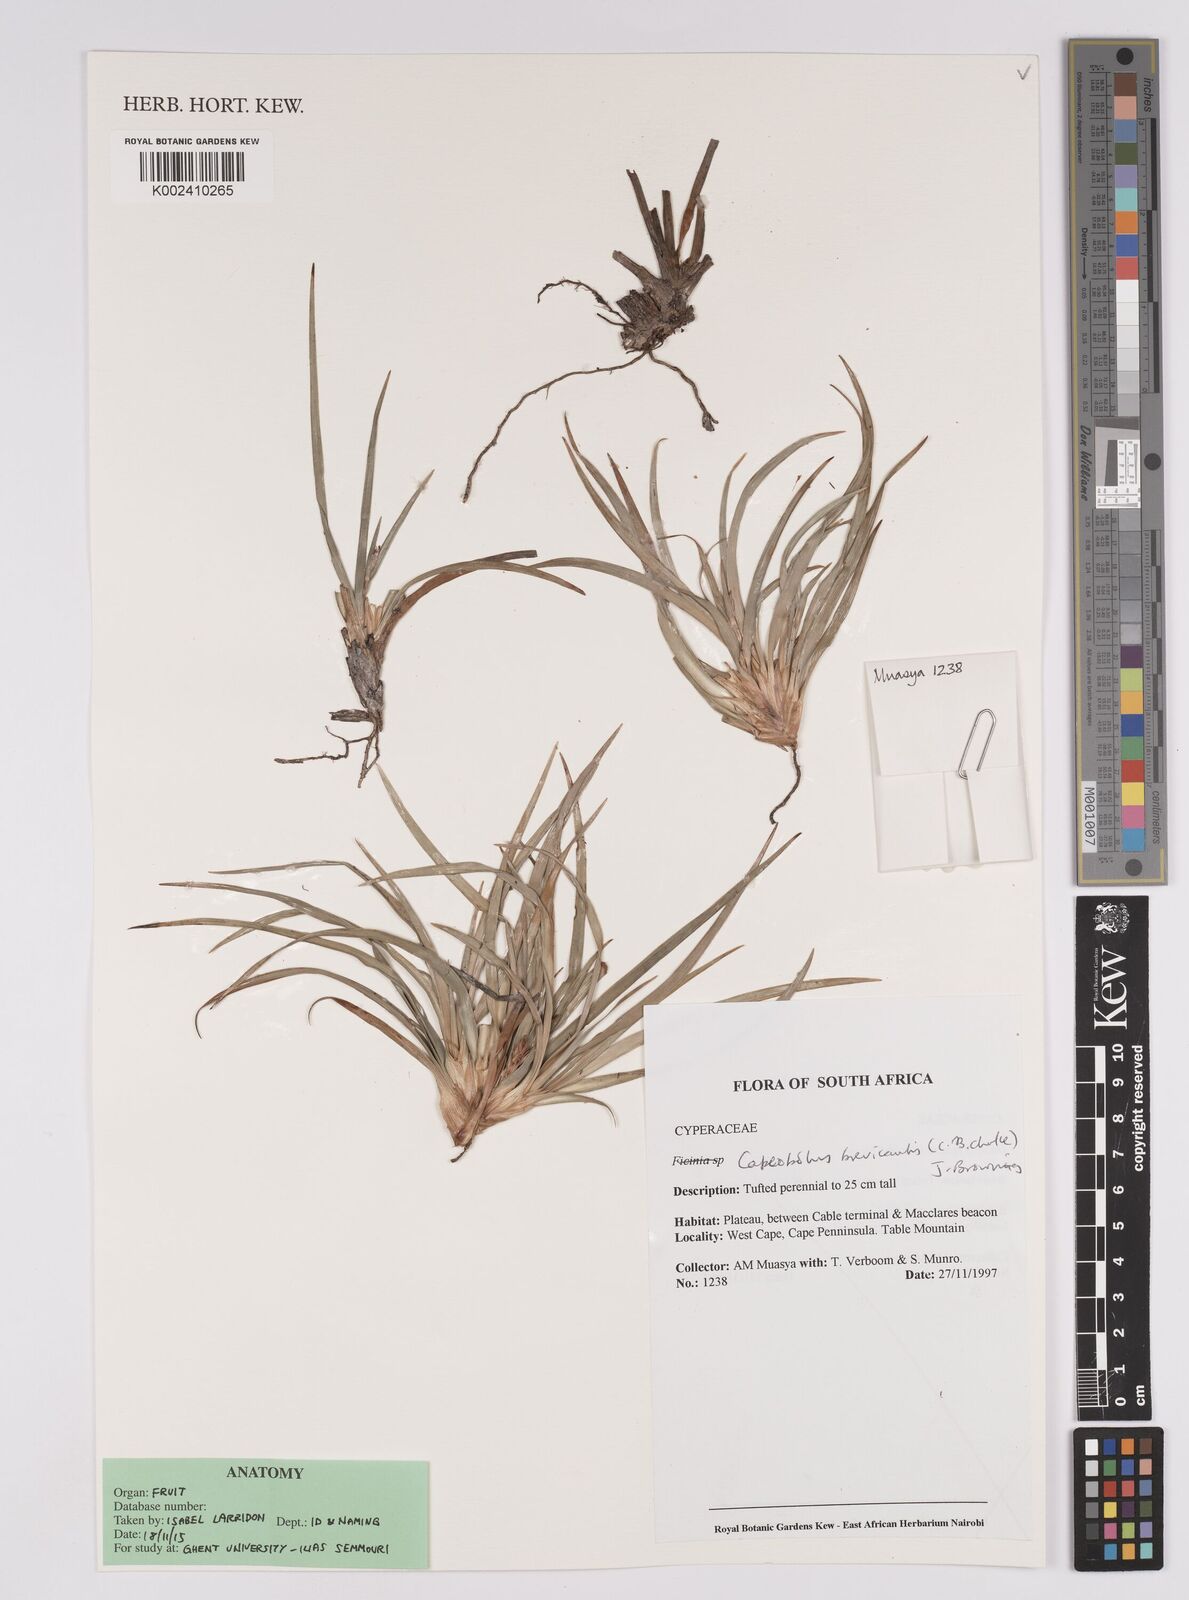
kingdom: Plantae
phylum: Tracheophyta
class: Liliopsida
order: Poales
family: Cyperaceae
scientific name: Cyperaceae
